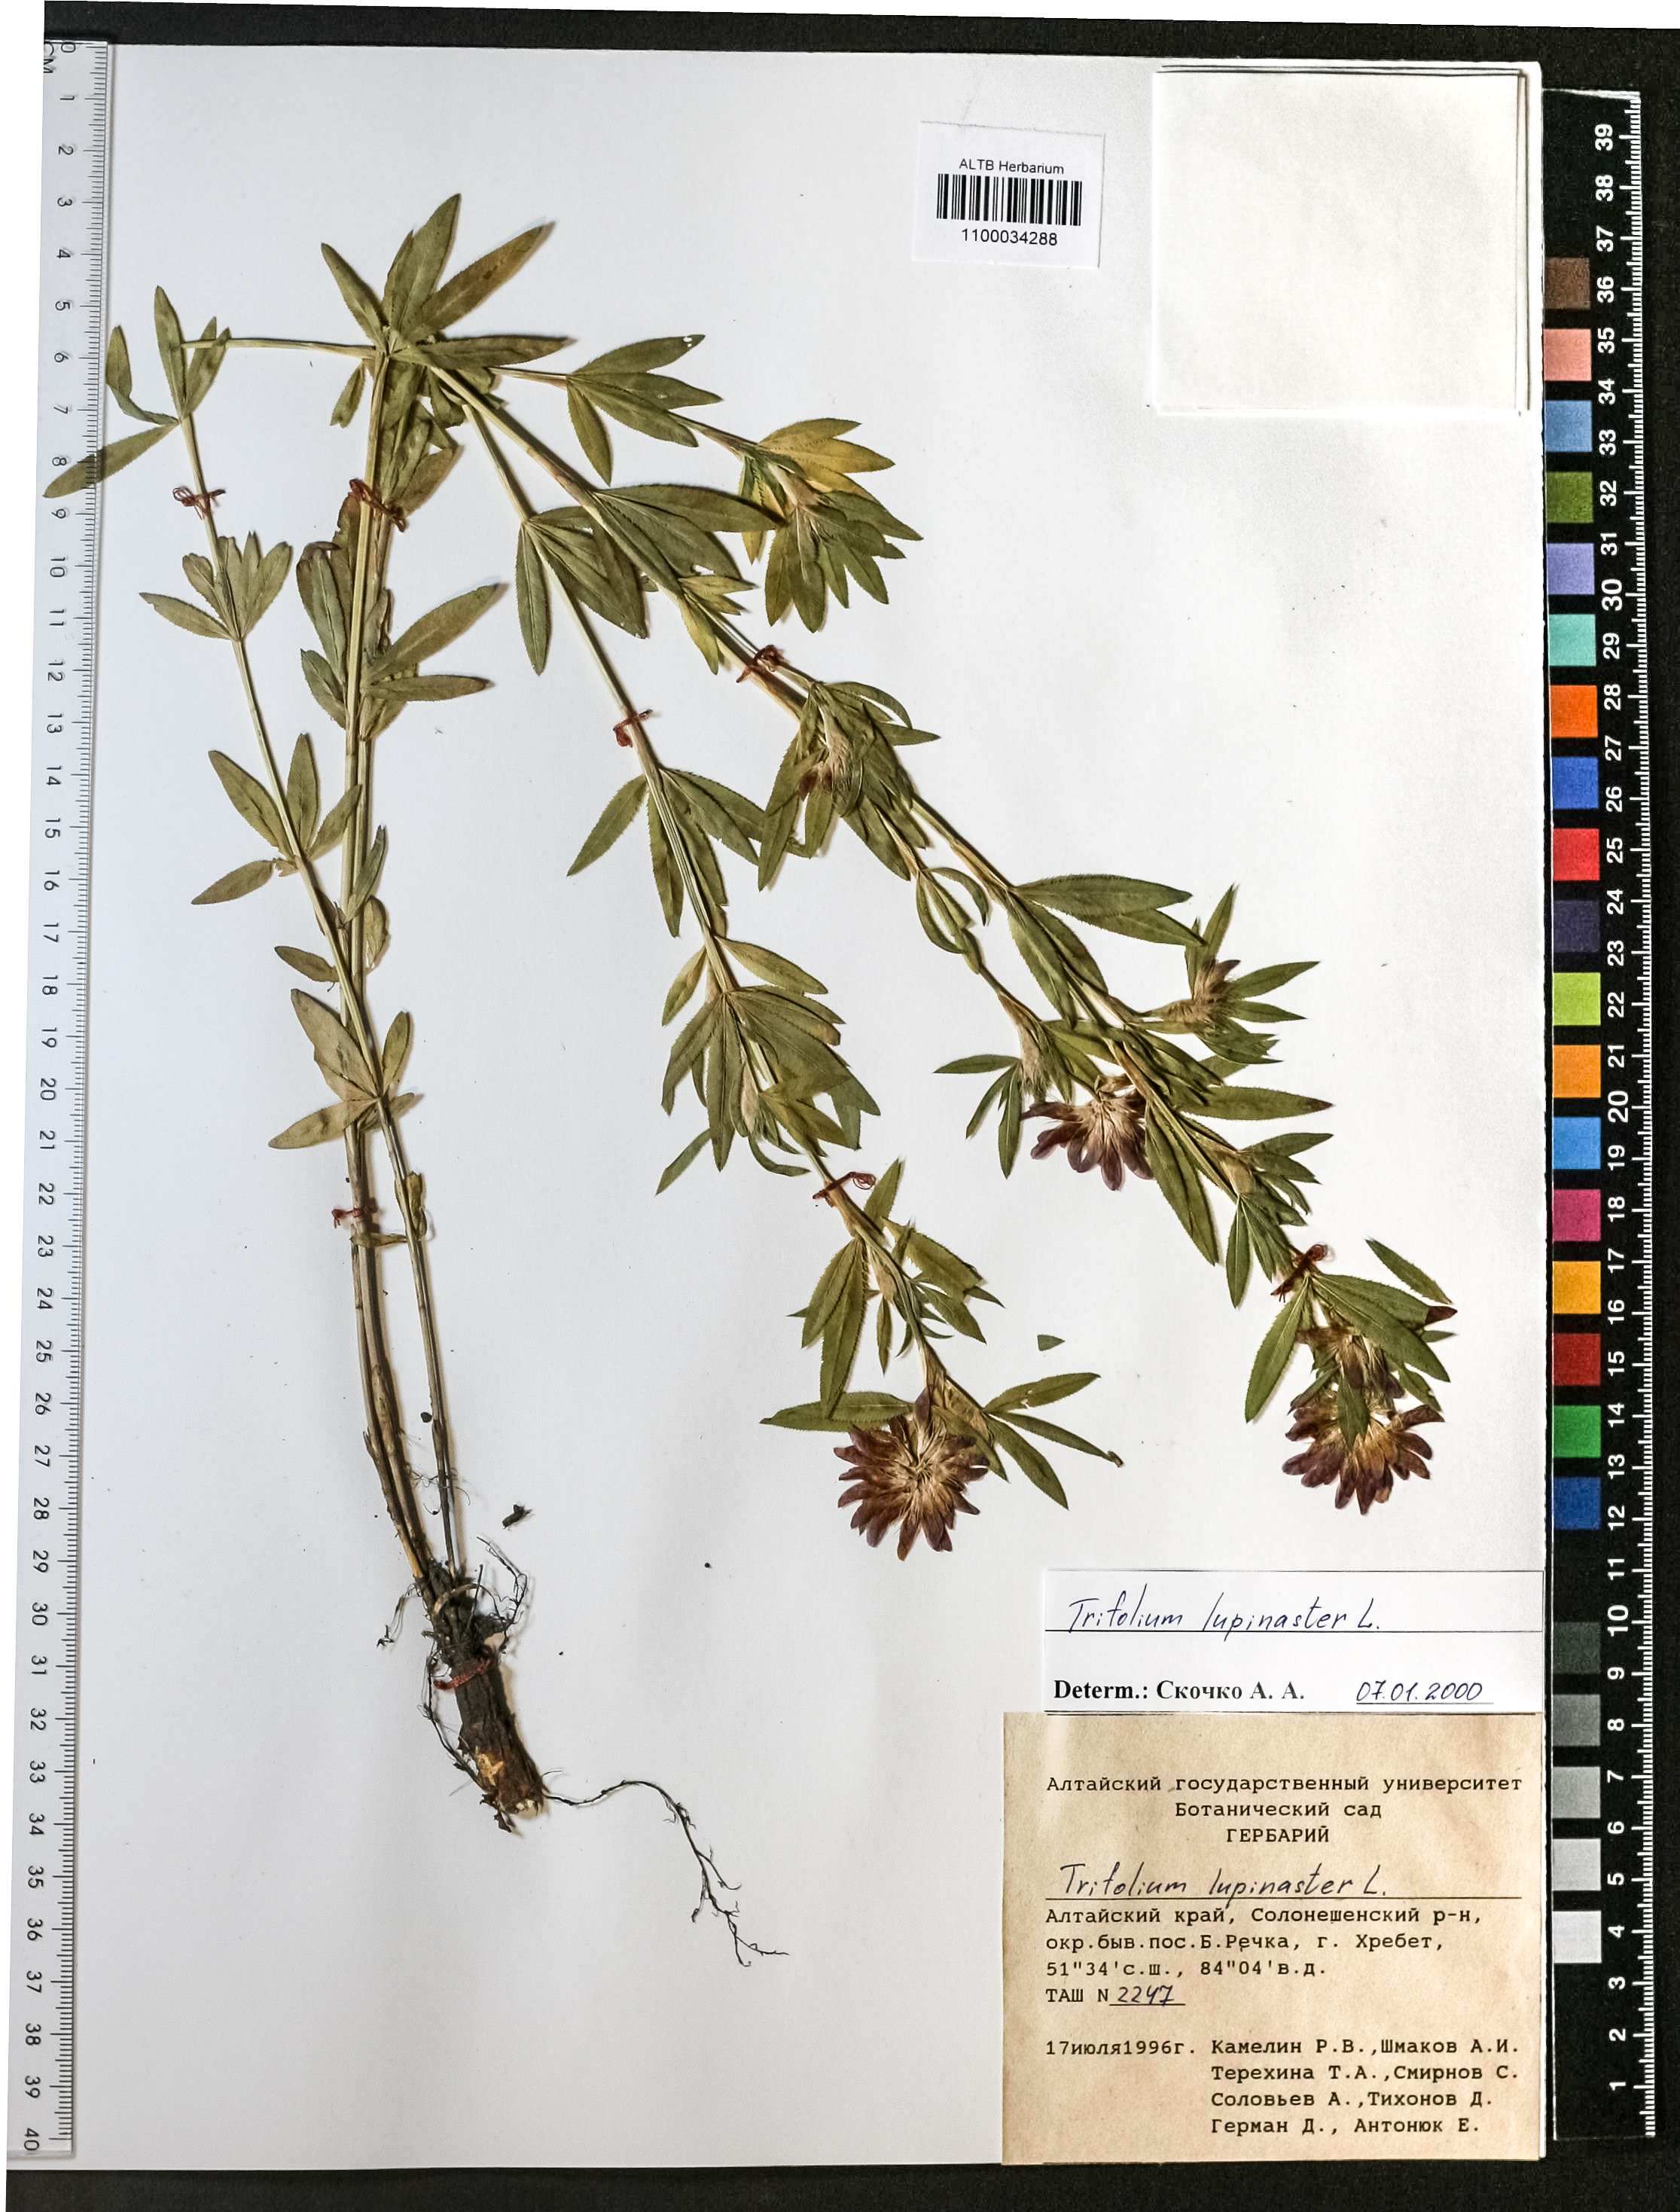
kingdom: Plantae
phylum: Tracheophyta
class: Magnoliopsida
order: Fabales
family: Fabaceae
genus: Trifolium
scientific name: Trifolium lupinaster
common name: Lupine clover
